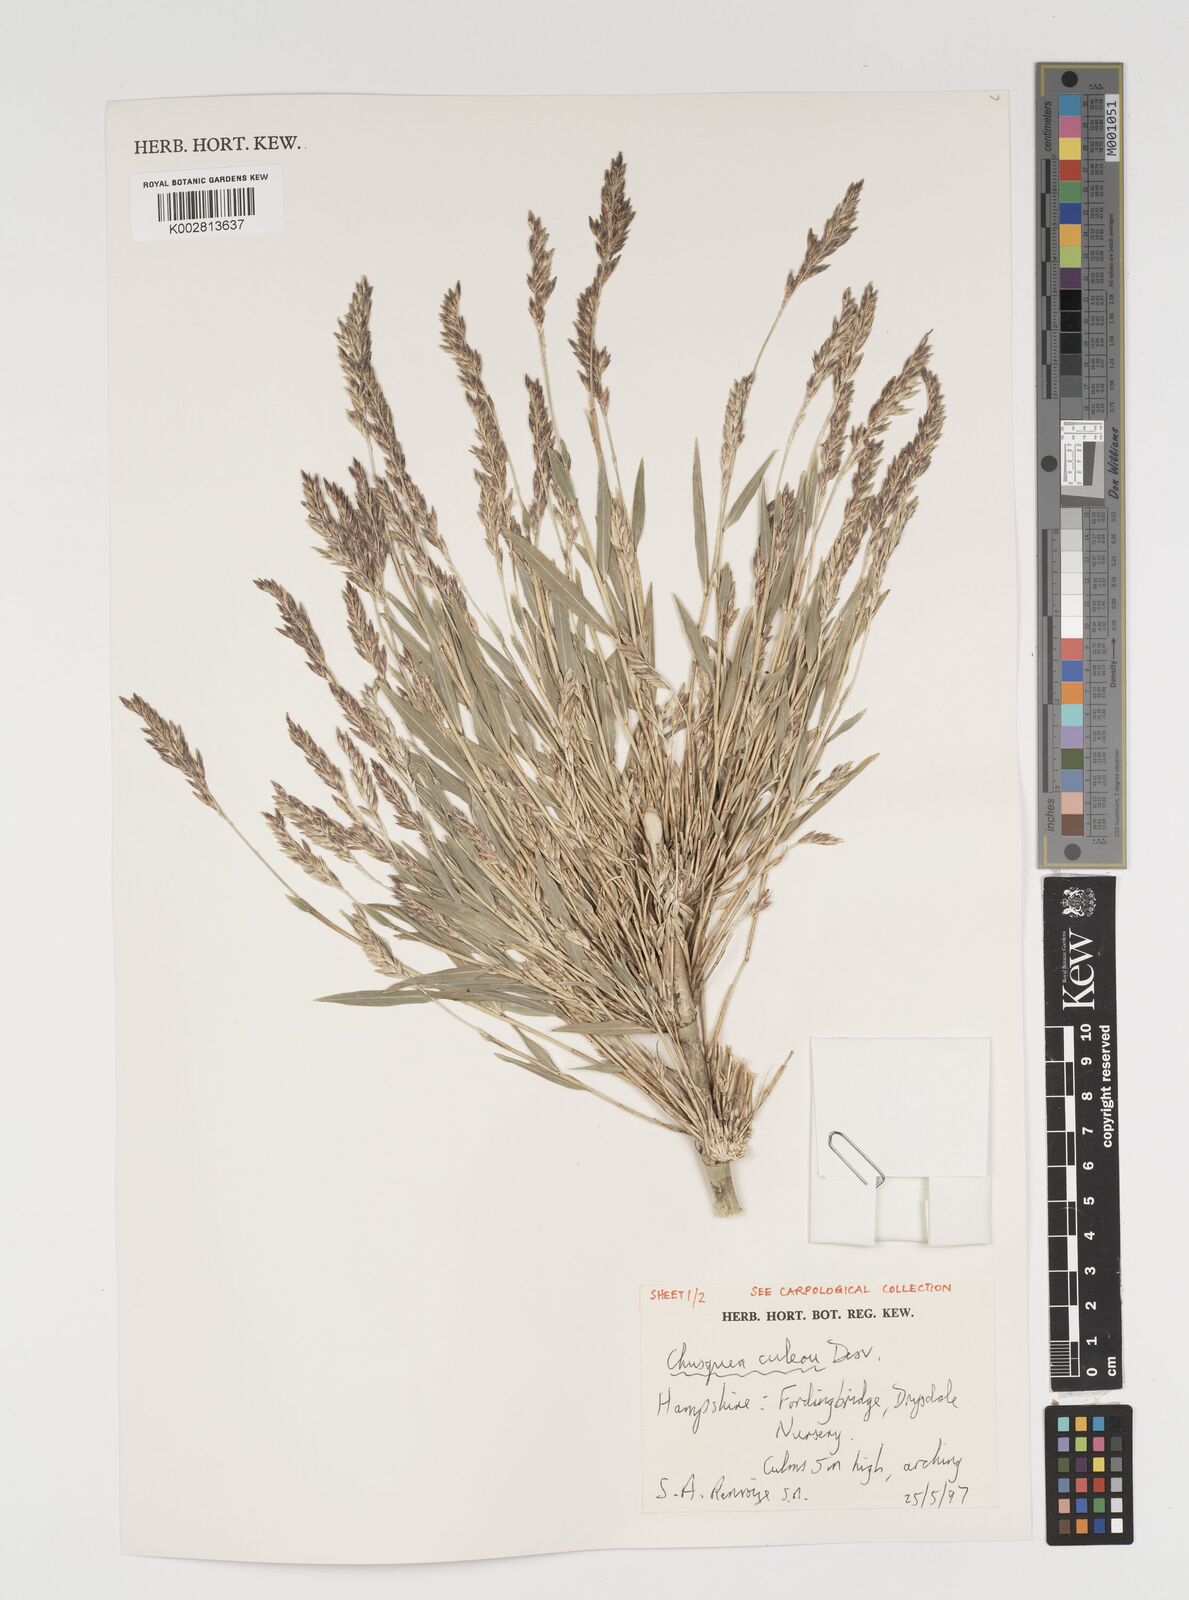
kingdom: Plantae
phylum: Tracheophyta
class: Liliopsida
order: Poales
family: Poaceae
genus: Chusquea
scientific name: Chusquea culeou
